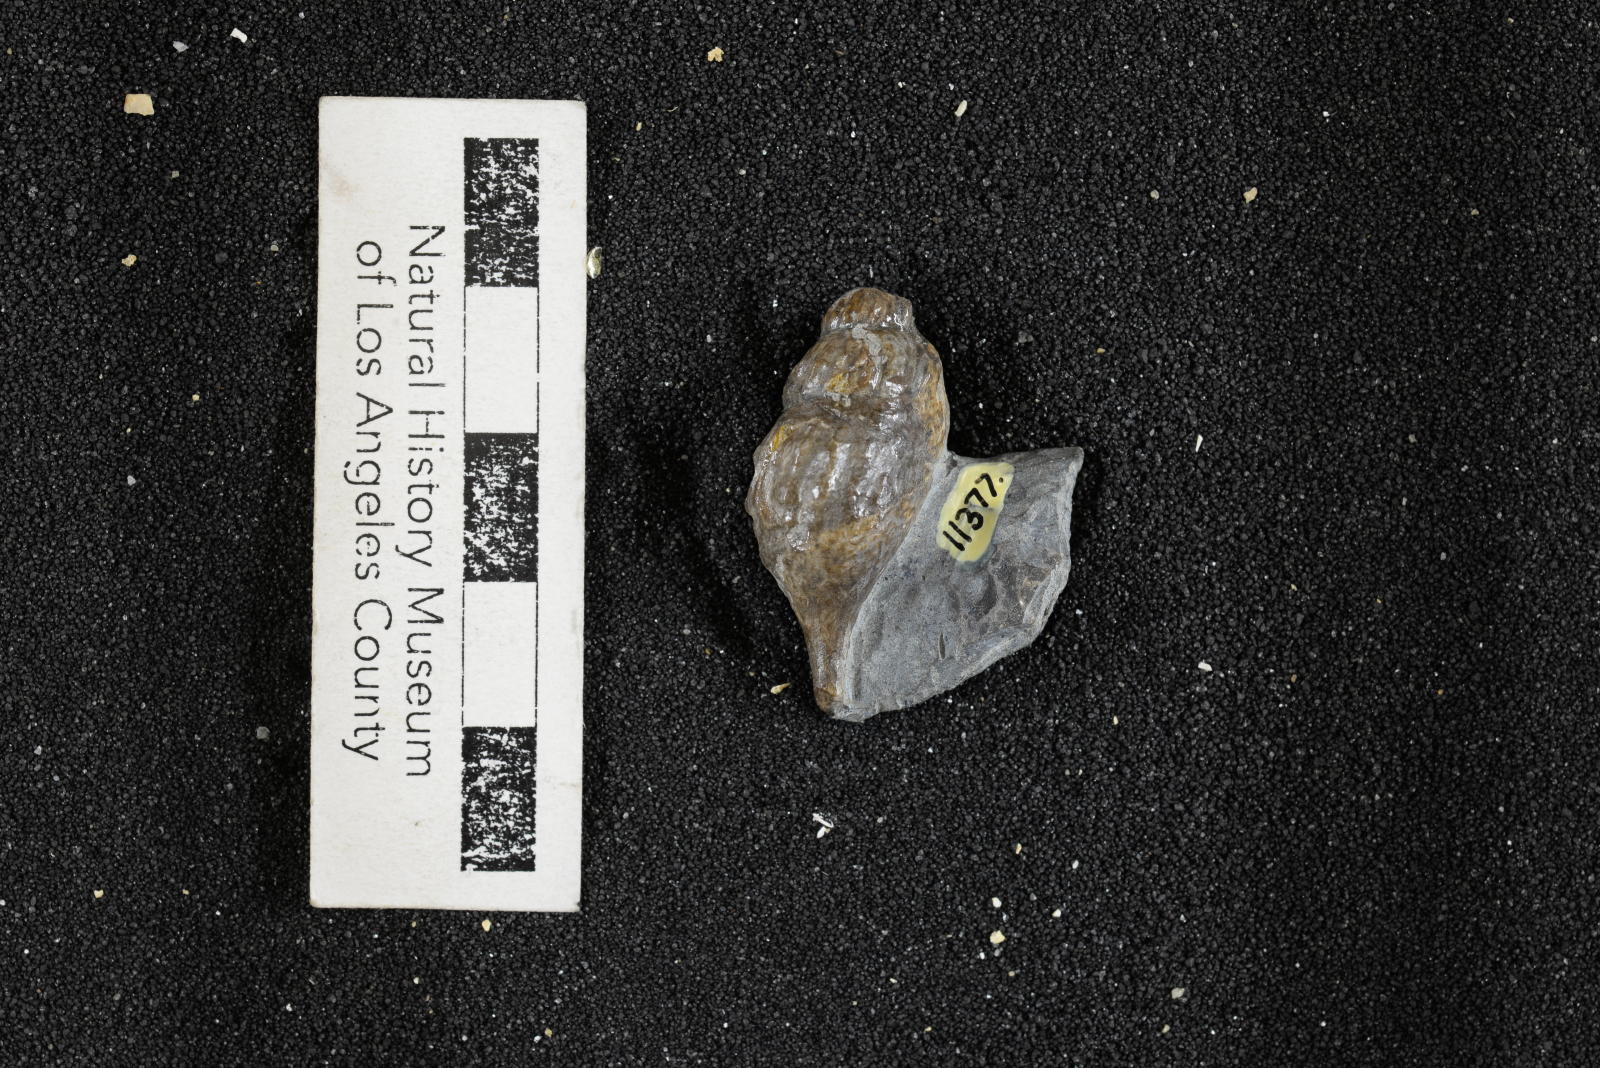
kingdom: Animalia
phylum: Mollusca
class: Gastropoda
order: Littorinimorpha
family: Aporrhaidae
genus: Aporrhais
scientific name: Aporrhais drachuki
